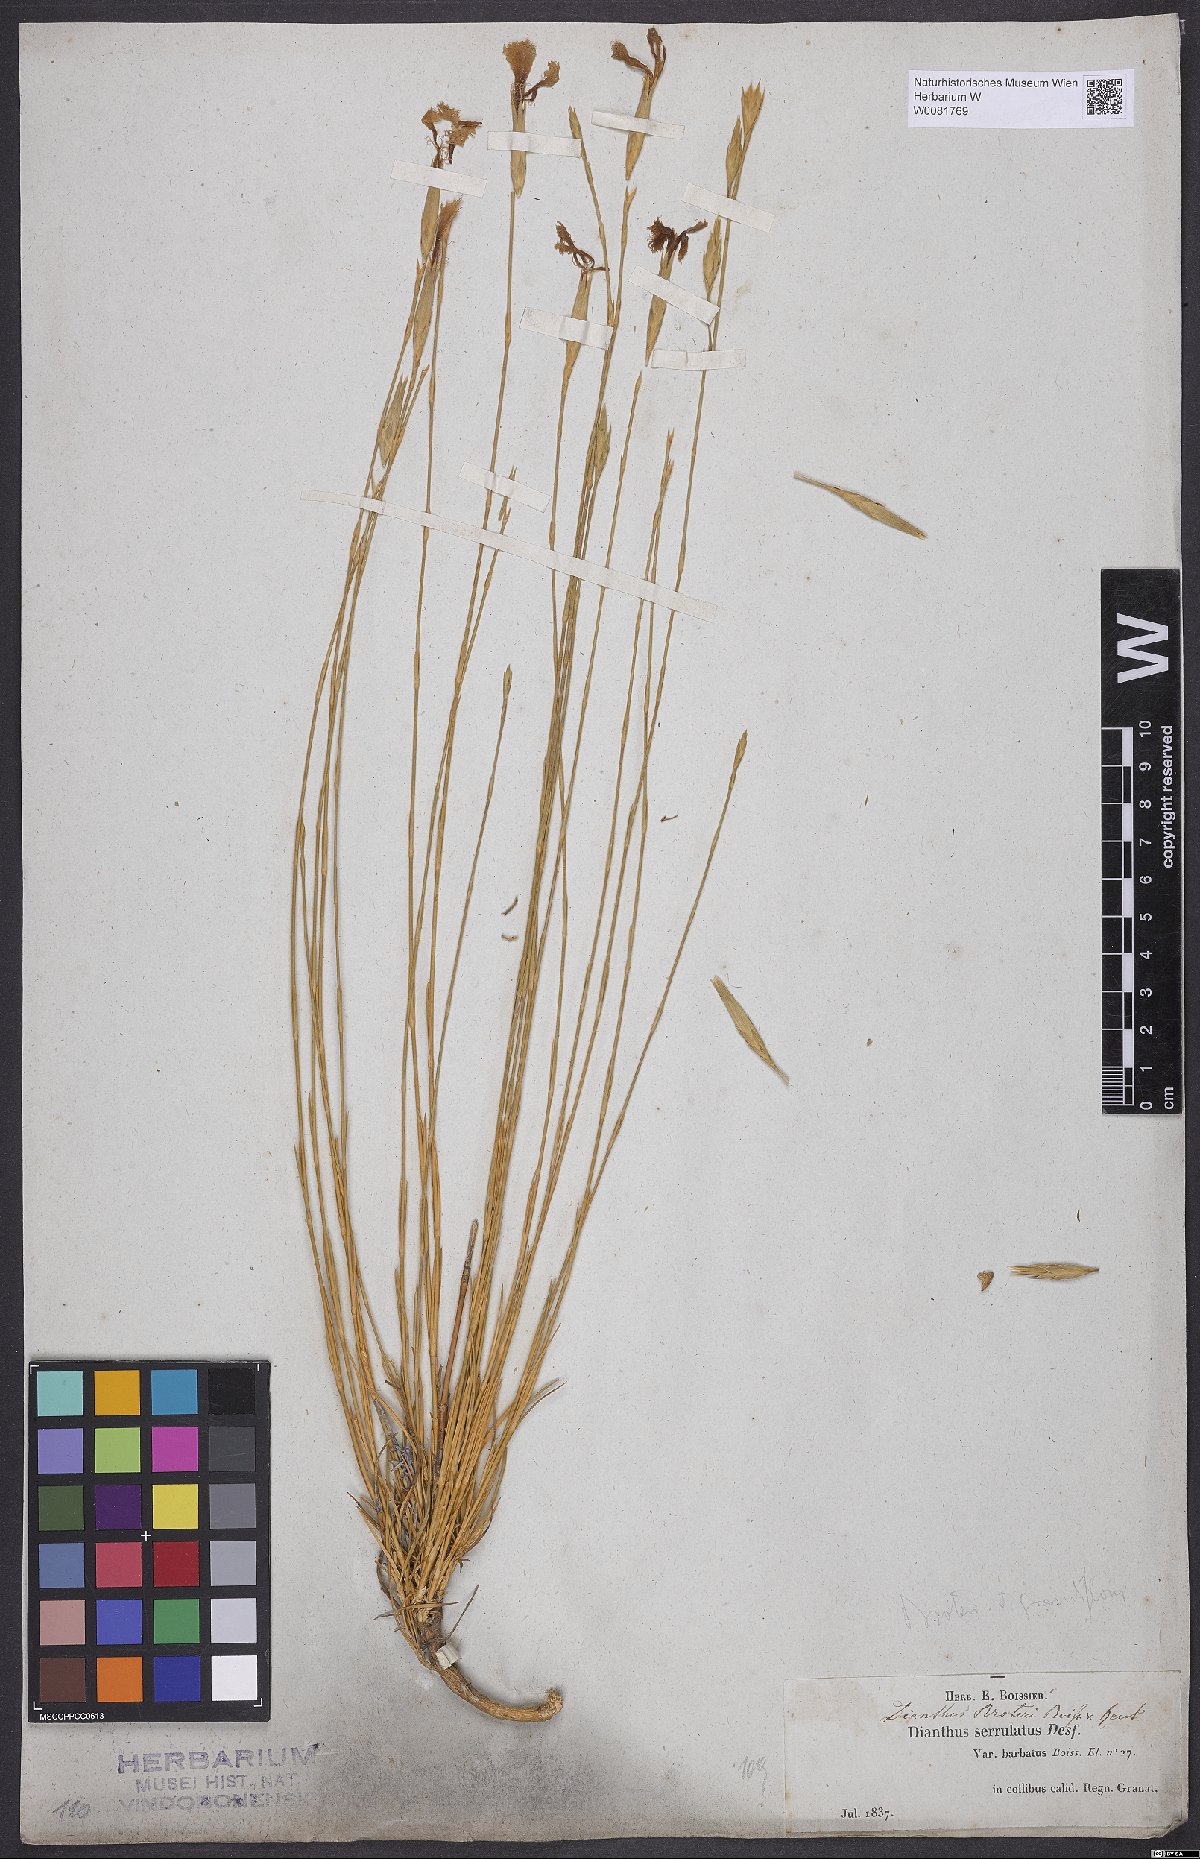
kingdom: Plantae
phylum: Tracheophyta
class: Magnoliopsida
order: Caryophyllales
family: Caryophyllaceae
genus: Dianthus
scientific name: Dianthus broteri
